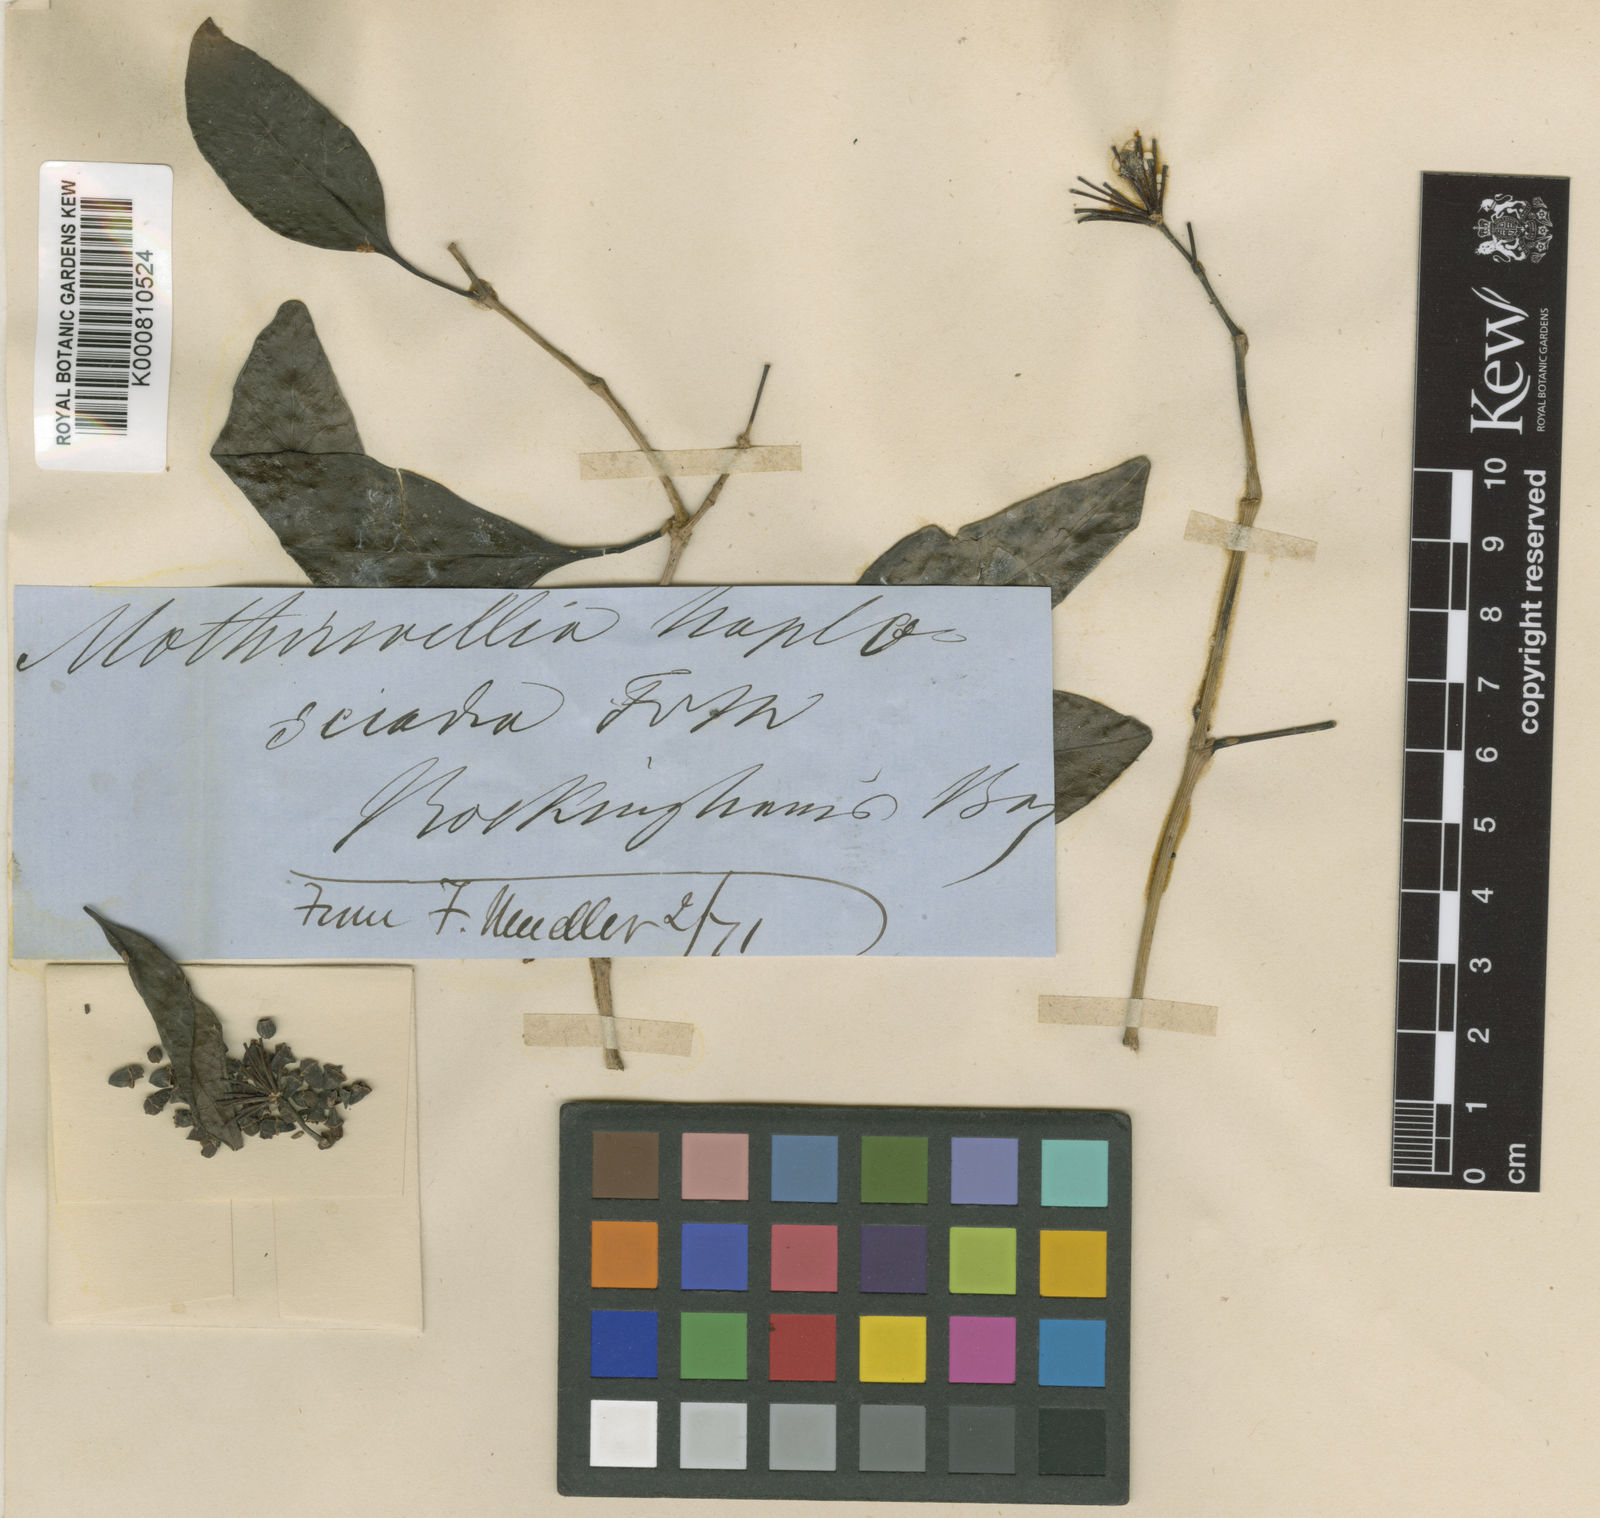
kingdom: Plantae
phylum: Tracheophyta
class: Magnoliopsida
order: Apiales
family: Araliaceae
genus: Motherwellia
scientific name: Motherwellia haplosciadea
